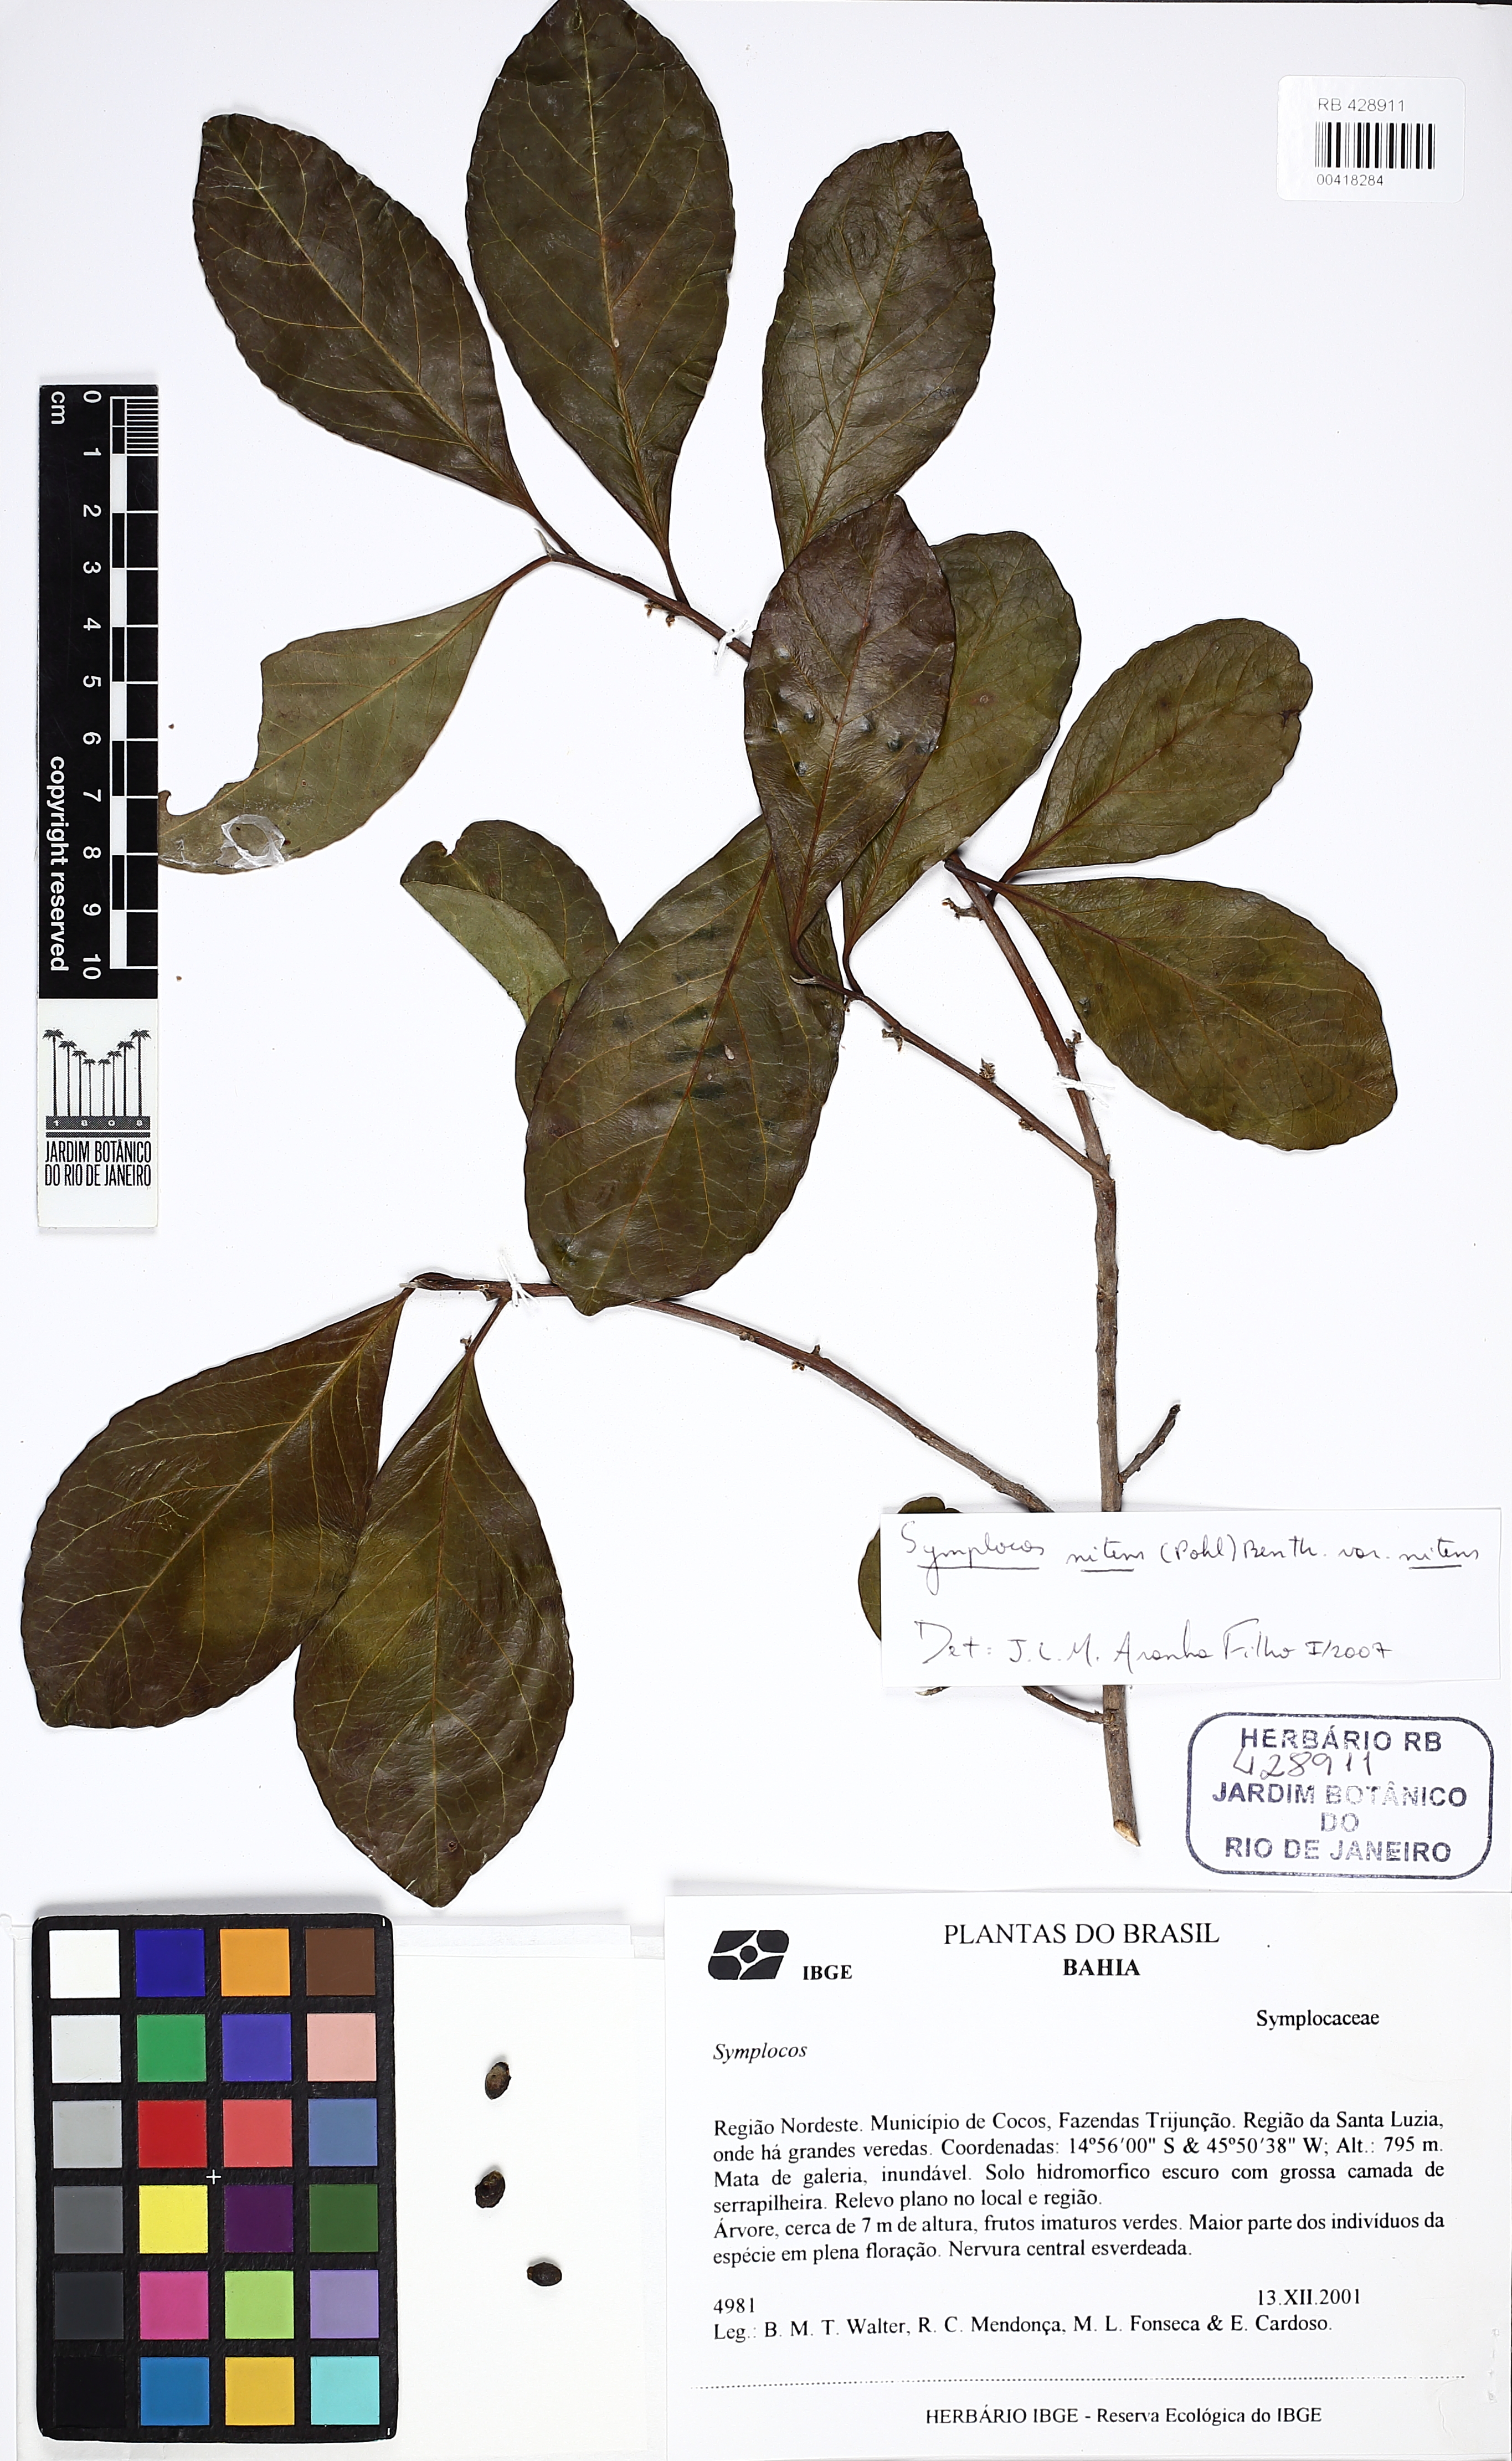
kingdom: Plantae
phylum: Tracheophyta
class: Magnoliopsida
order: Ericales
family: Symplocaceae
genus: Symplocos
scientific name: Symplocos
